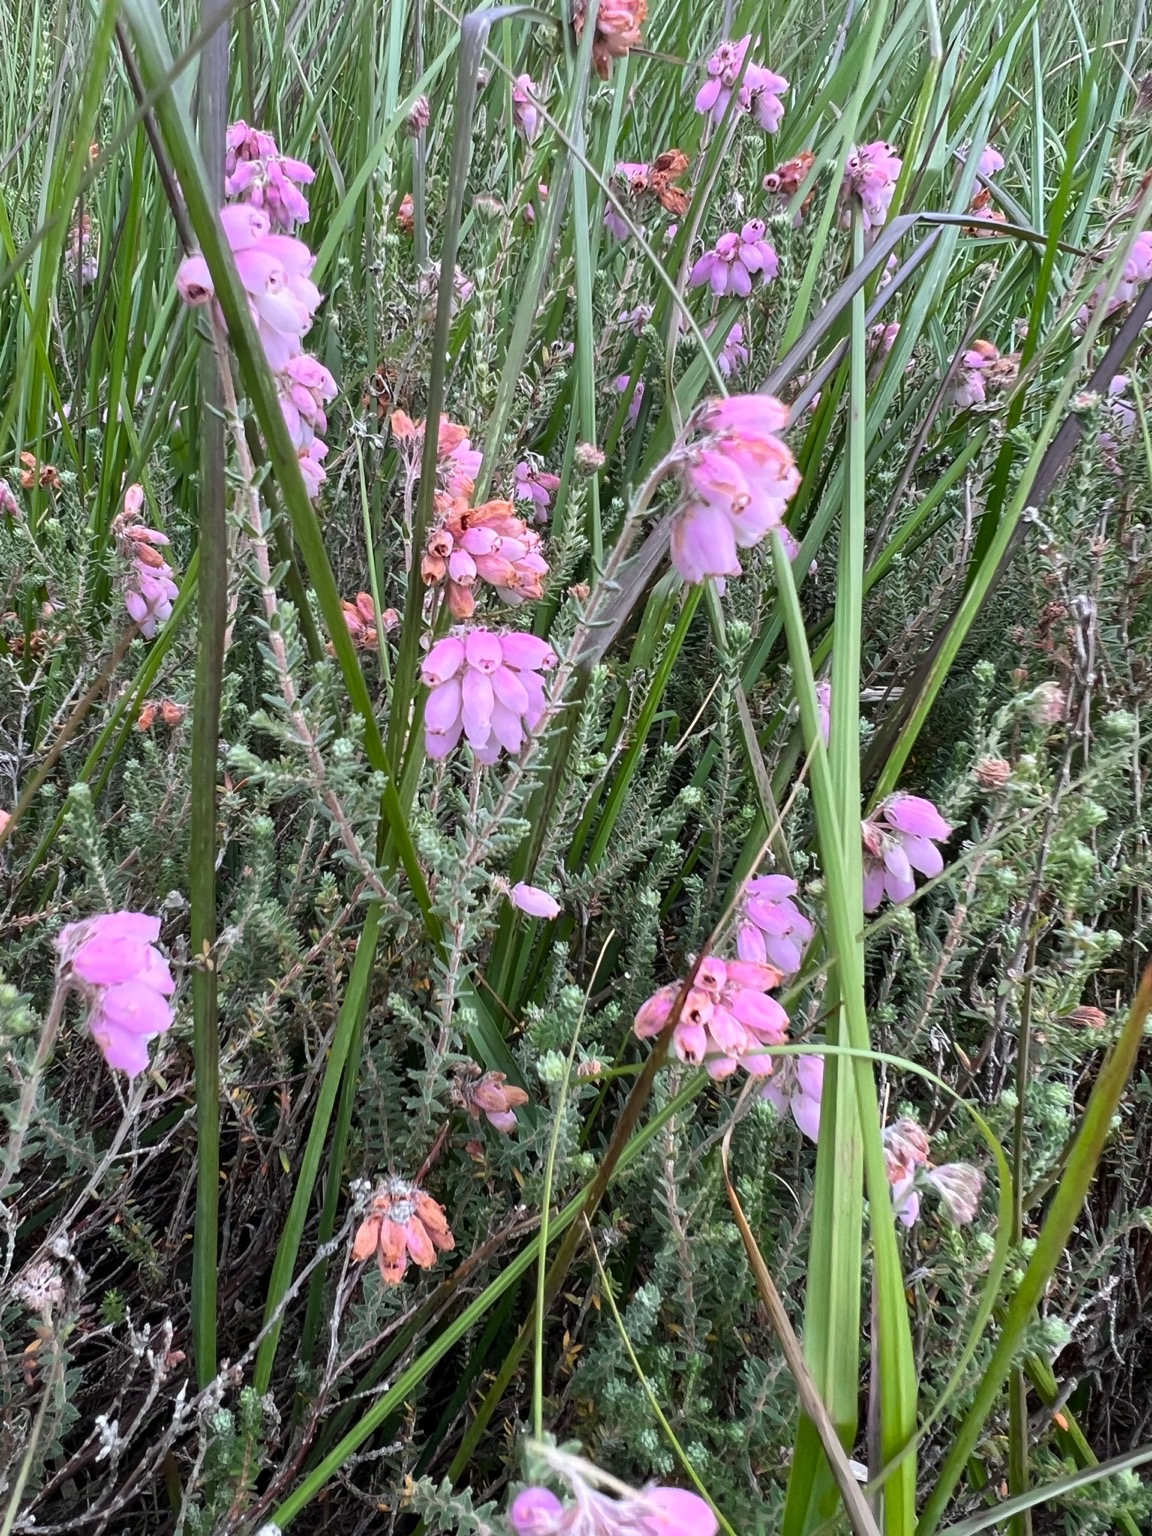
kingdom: Plantae
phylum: Tracheophyta
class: Magnoliopsida
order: Ericales
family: Ericaceae
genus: Erica
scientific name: Erica tetralix
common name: Klokkelyng
